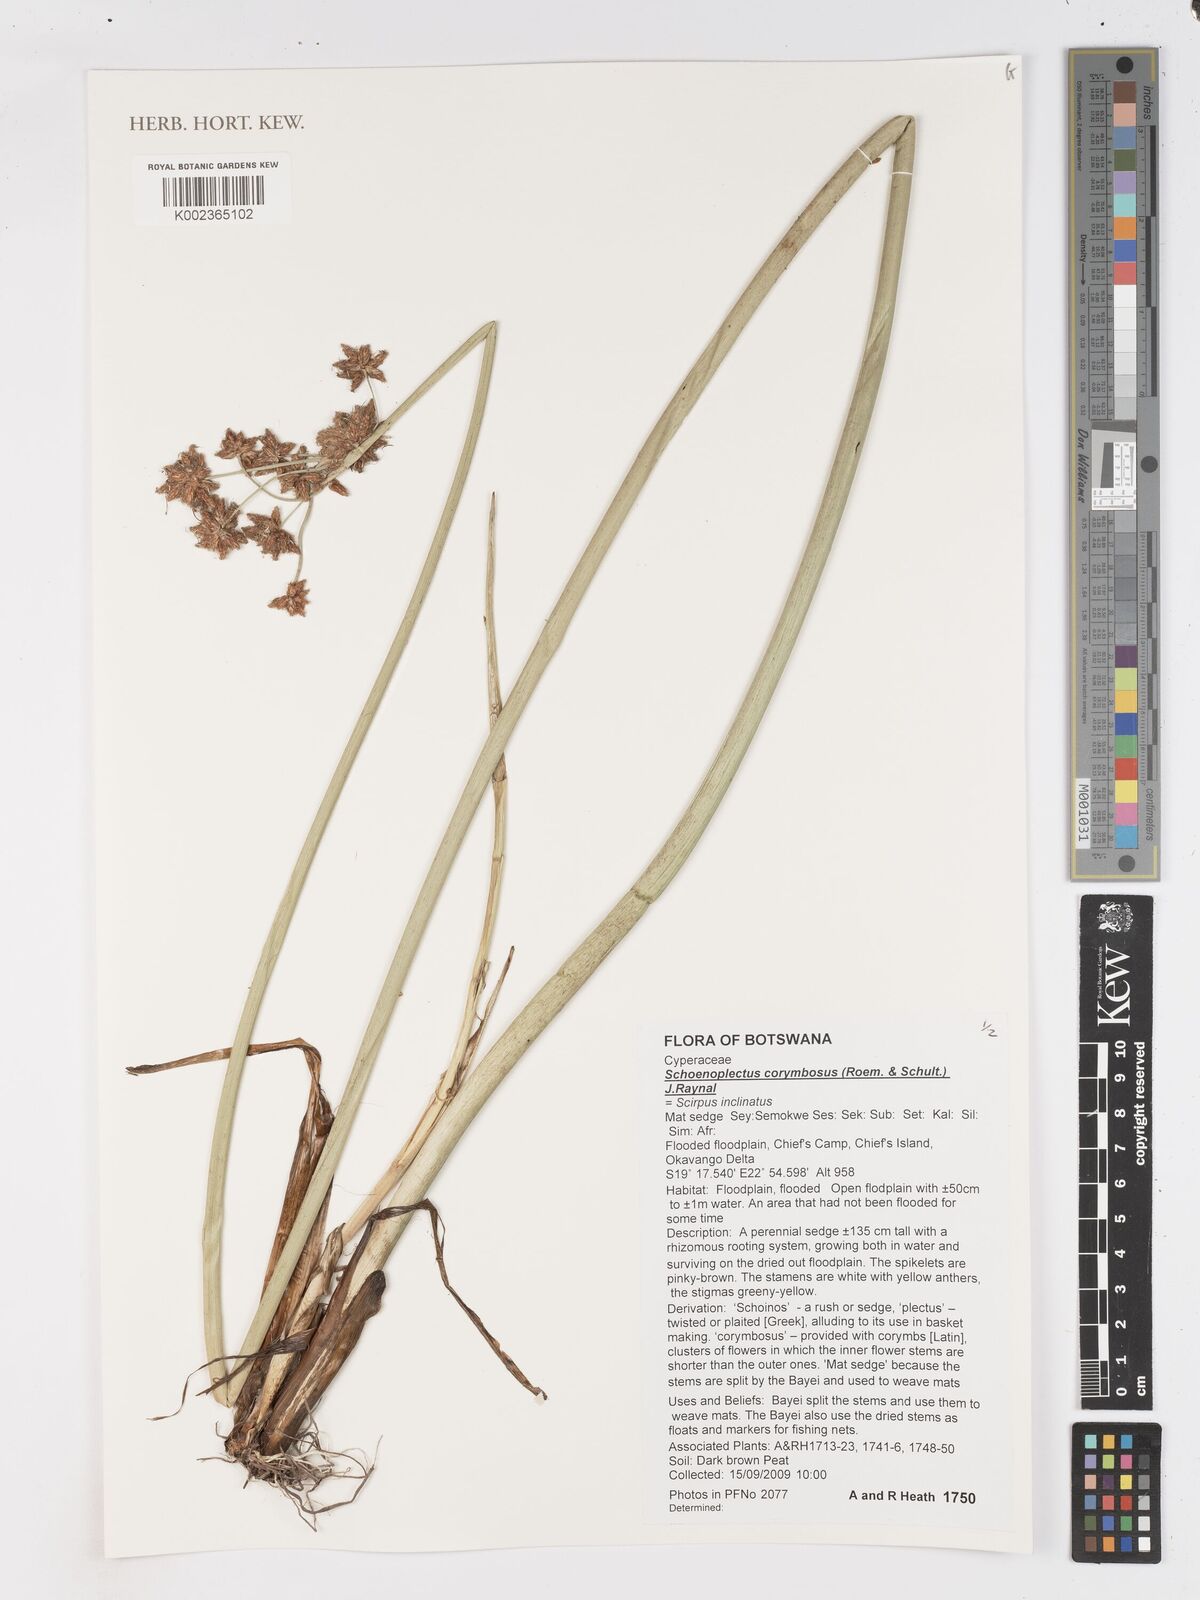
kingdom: Plantae
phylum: Tracheophyta
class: Liliopsida
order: Poales
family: Cyperaceae
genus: Schoenoplectiella
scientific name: Schoenoplectiella corymbosa
